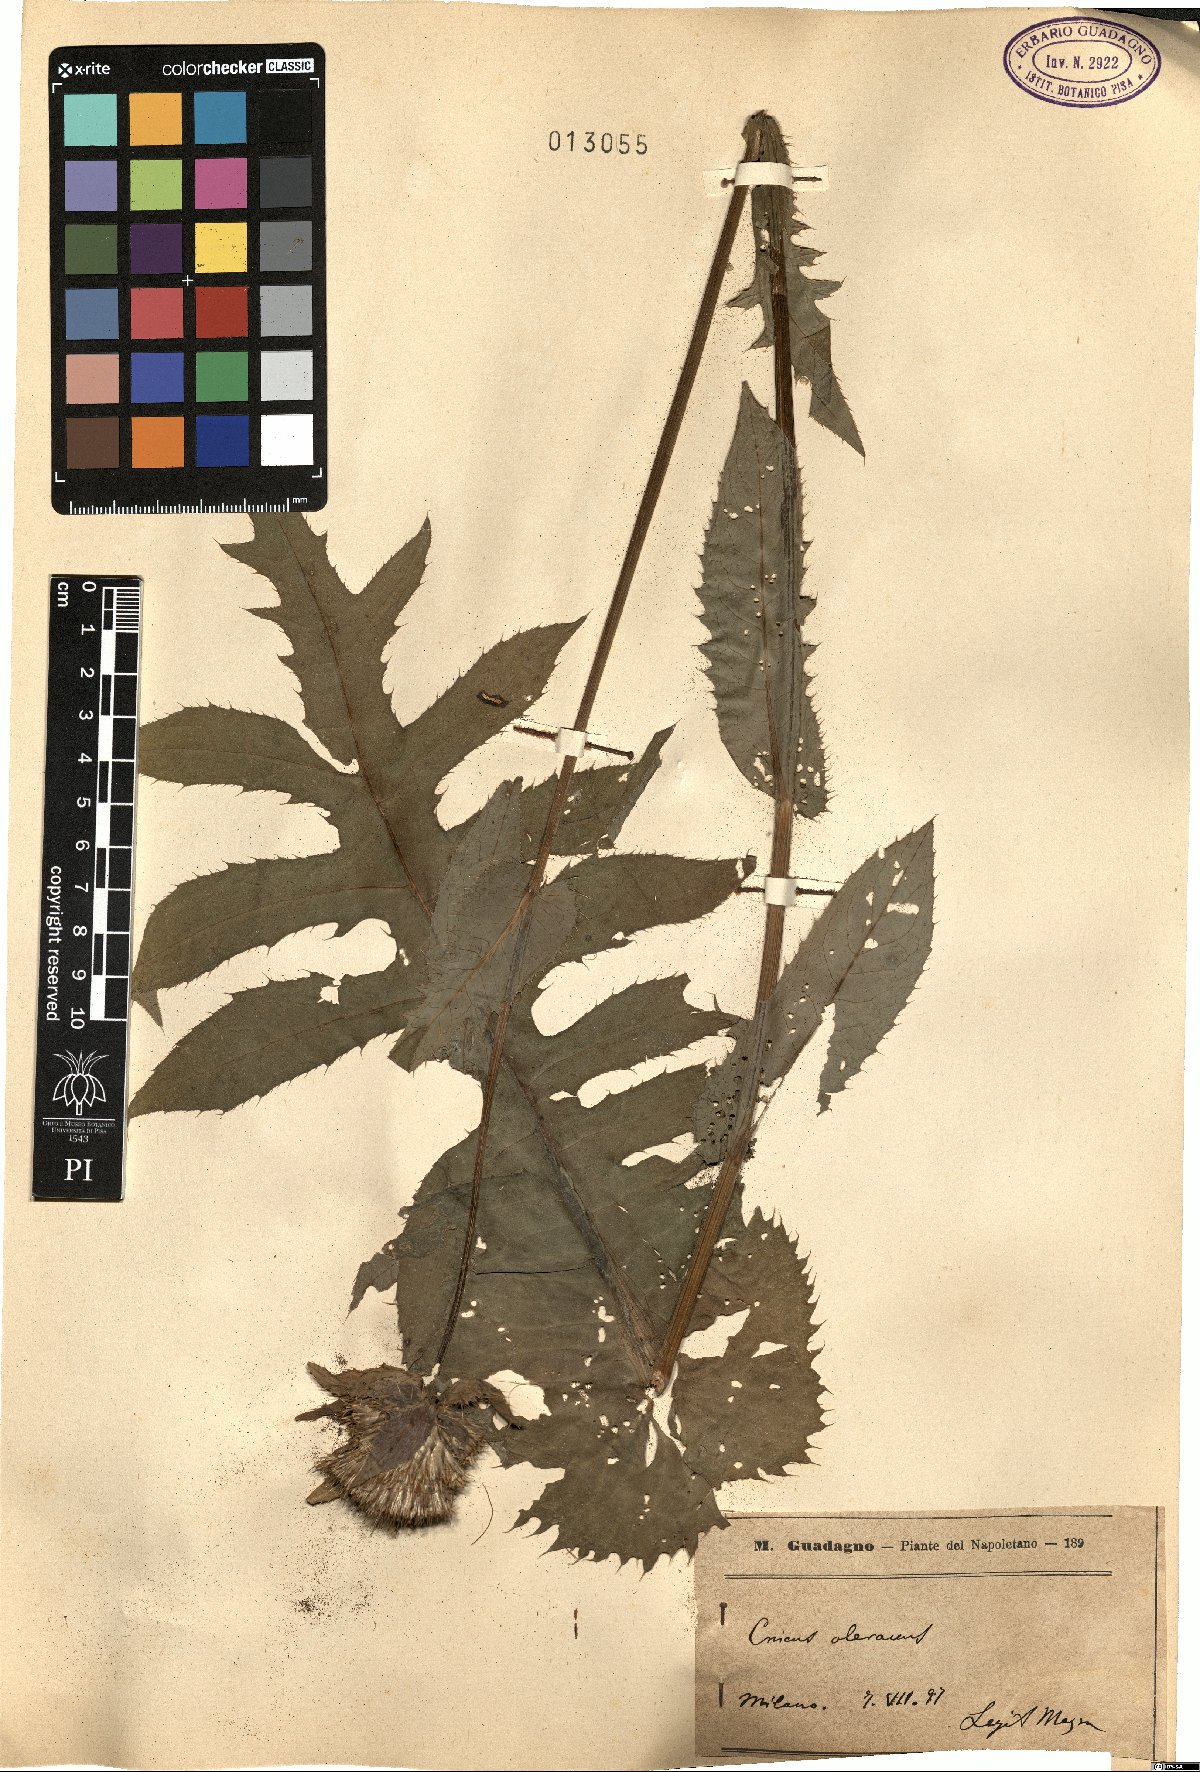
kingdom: Plantae
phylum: Tracheophyta
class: Magnoliopsida
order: Asterales
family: Asteraceae
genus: Cirsium
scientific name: Cirsium
